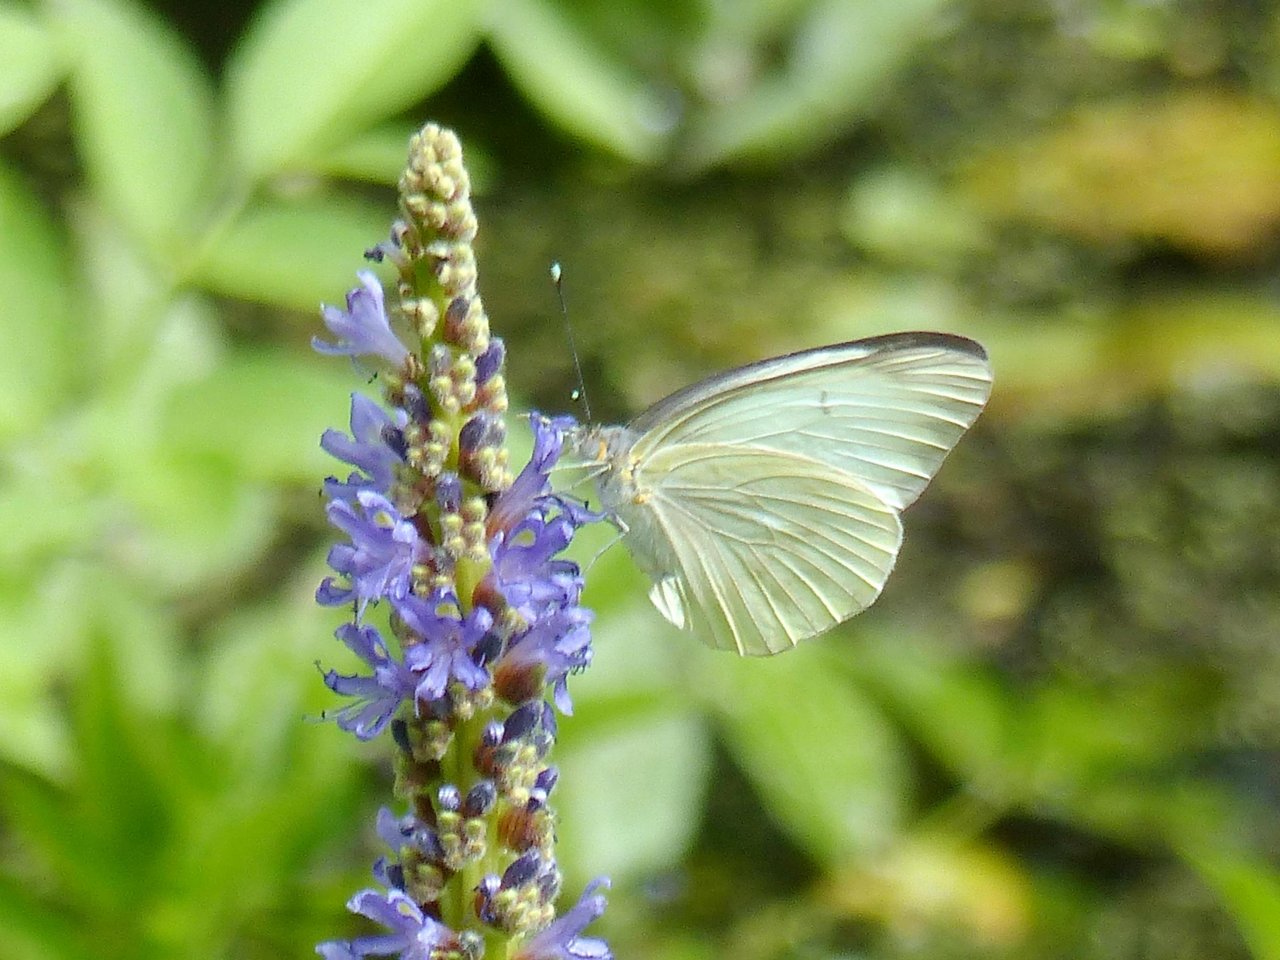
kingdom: Animalia
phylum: Arthropoda
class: Insecta
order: Lepidoptera
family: Pieridae
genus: Ascia
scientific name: Ascia monuste
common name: Great Southern White
